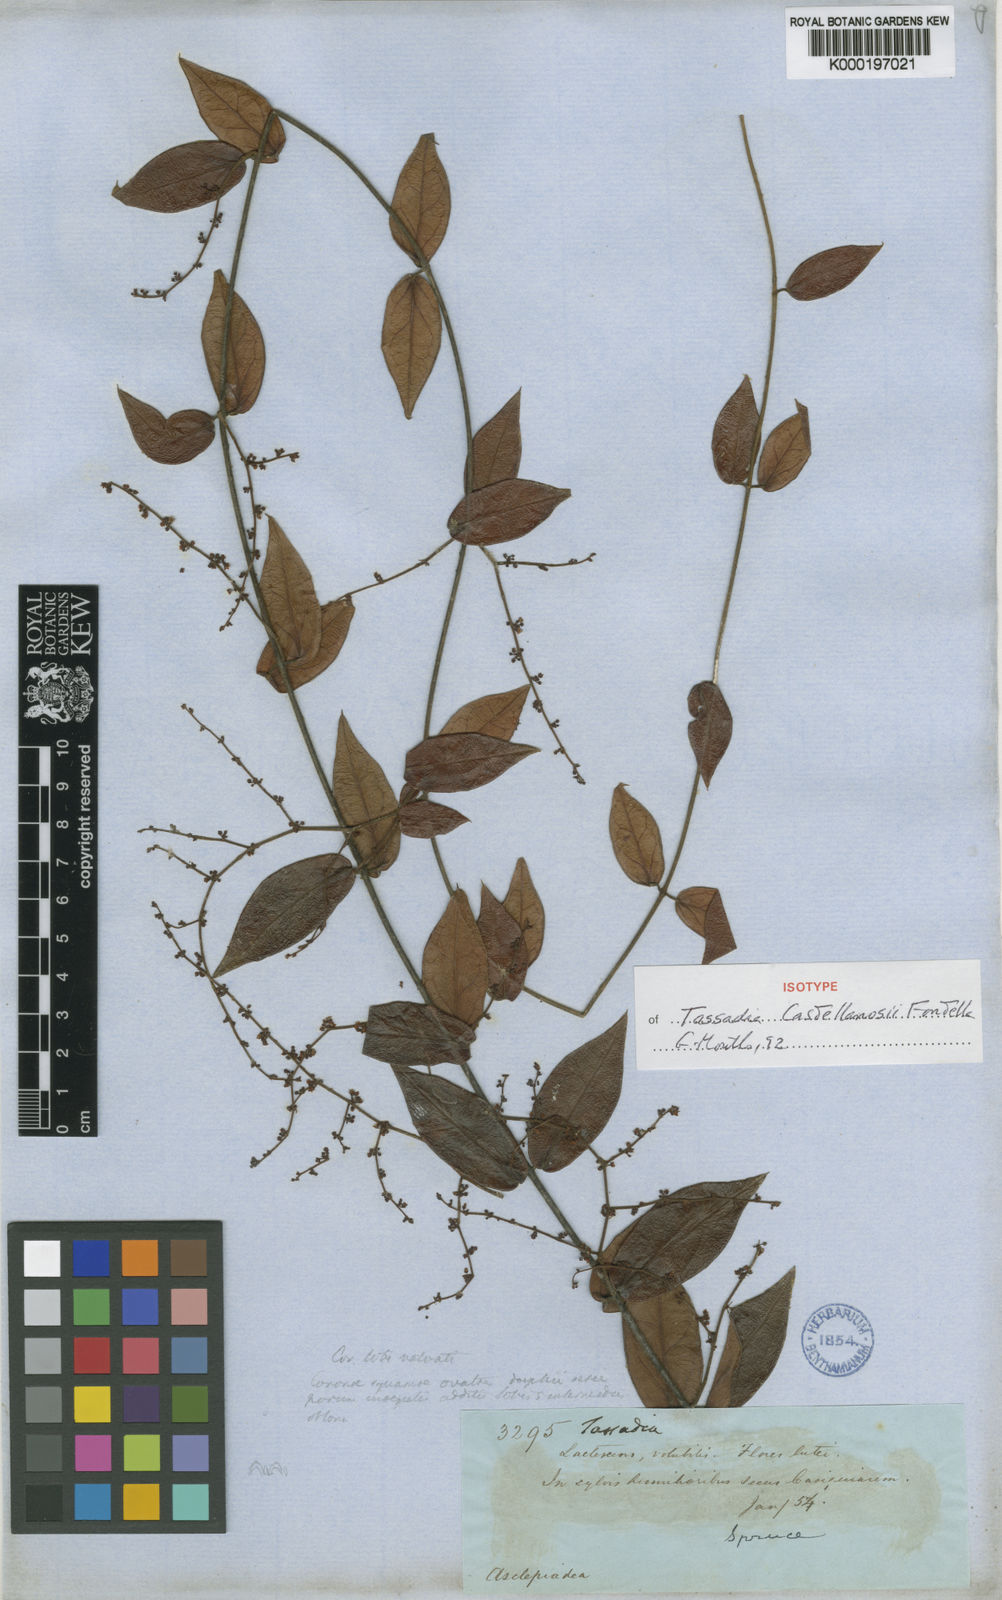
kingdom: Plantae
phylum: Tracheophyta
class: Magnoliopsida
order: Gentianales
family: Apocynaceae
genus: Tassadia
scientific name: Tassadia castellanosii
